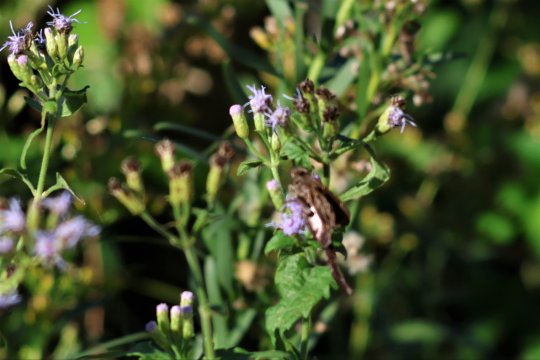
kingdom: Animalia
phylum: Arthropoda
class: Insecta
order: Lepidoptera
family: Hesperiidae
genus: Chioides
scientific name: Chioides zilpa
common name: Zilpa Longtail
